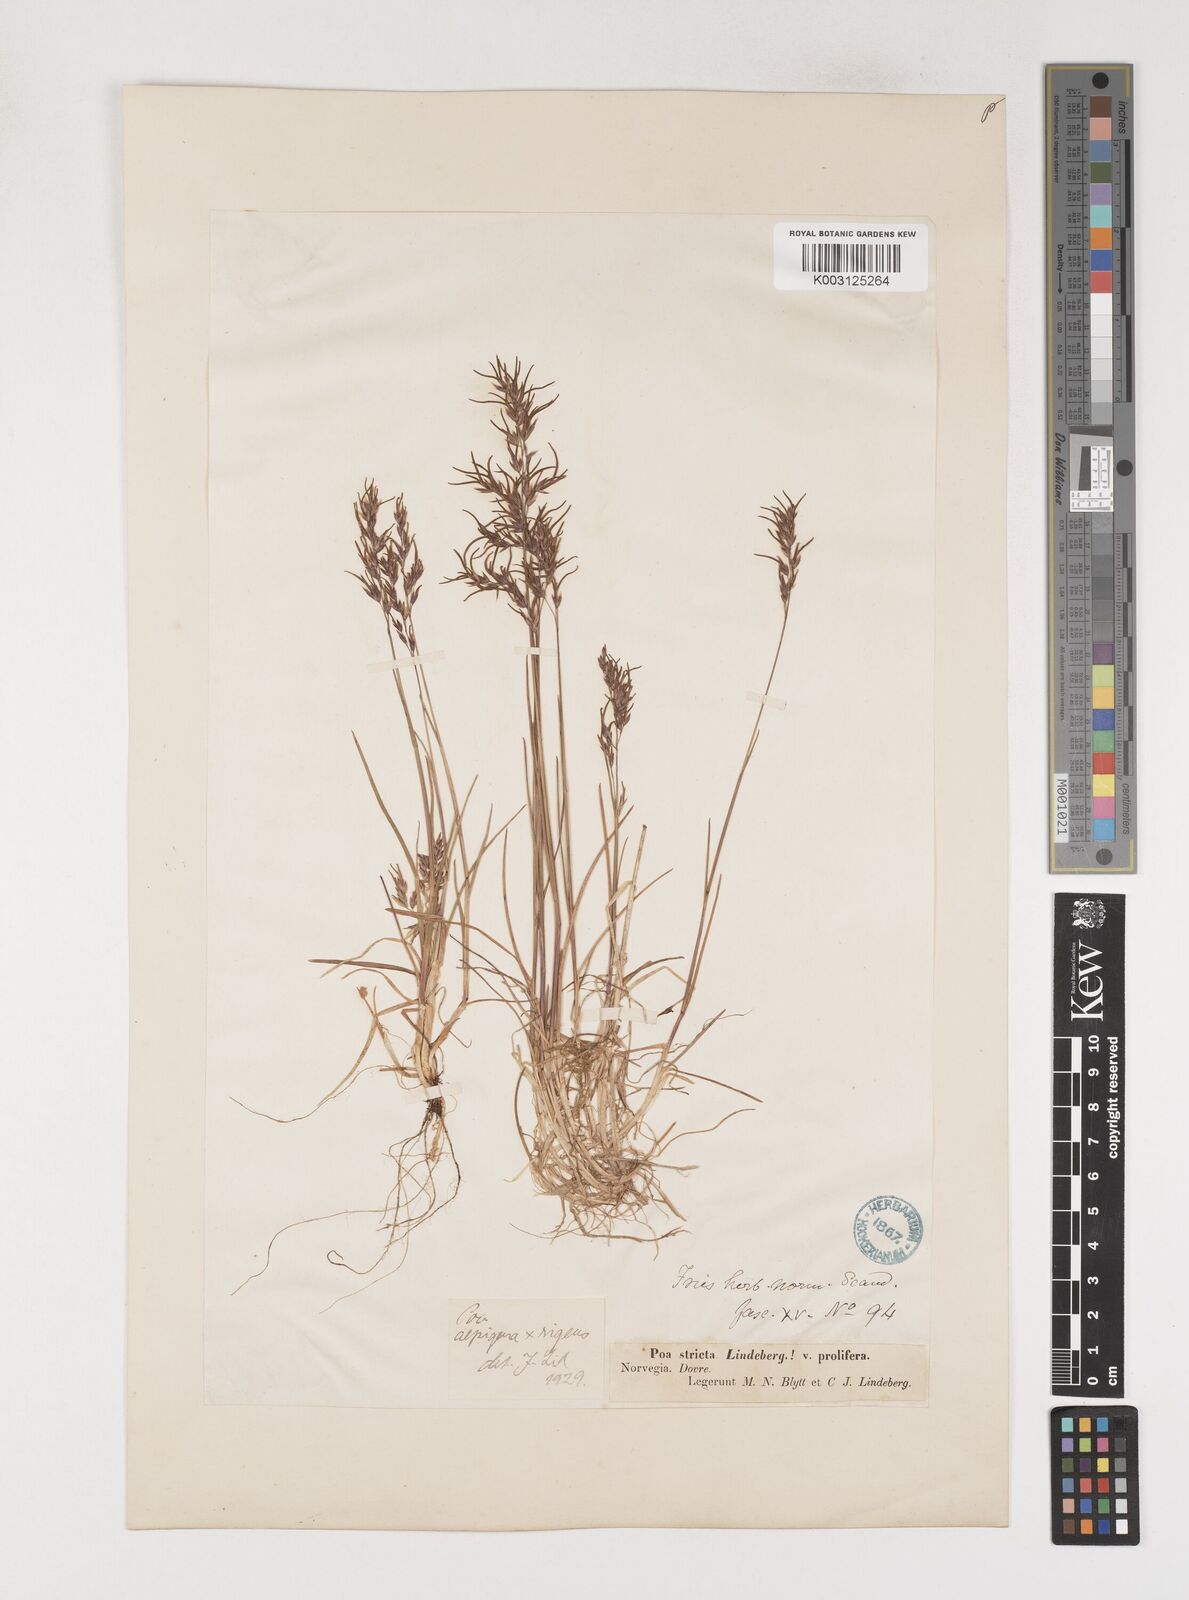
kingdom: Plantae
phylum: Tracheophyta
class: Liliopsida
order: Poales
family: Poaceae
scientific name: Poaceae
